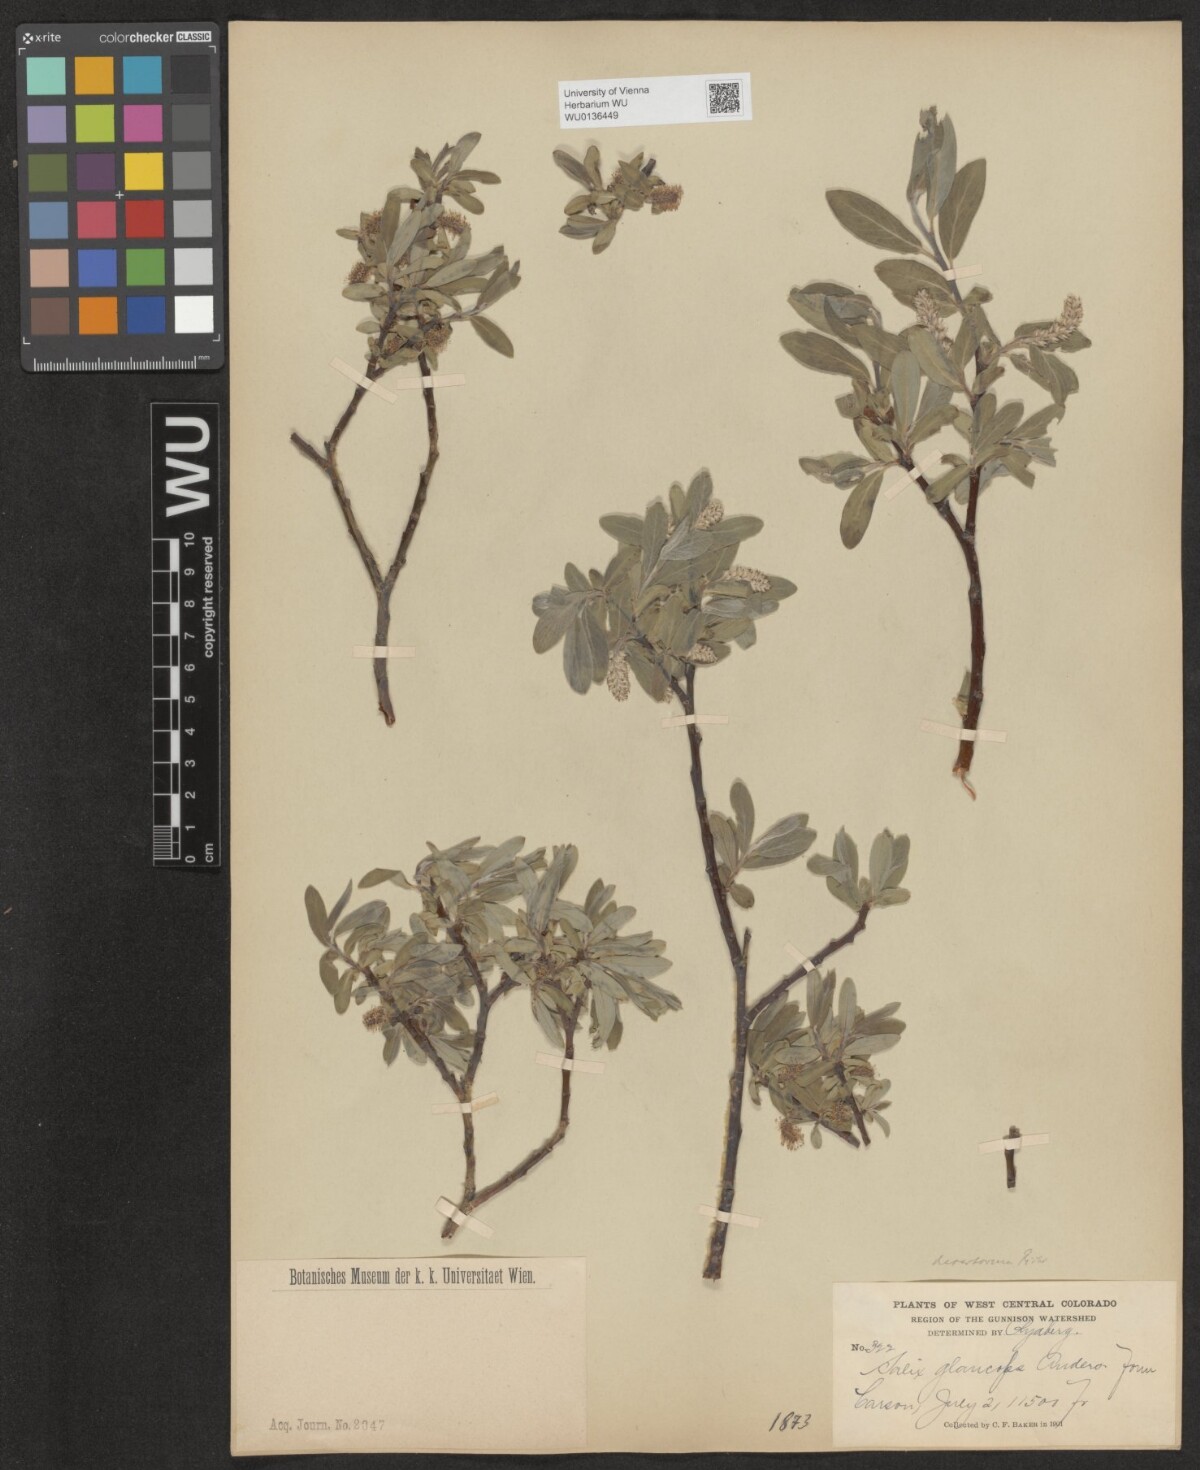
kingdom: Plantae
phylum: Tracheophyta
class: Magnoliopsida
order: Malpighiales
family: Salicaceae
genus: Salix
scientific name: Salix glauca
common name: Glaucous willow
